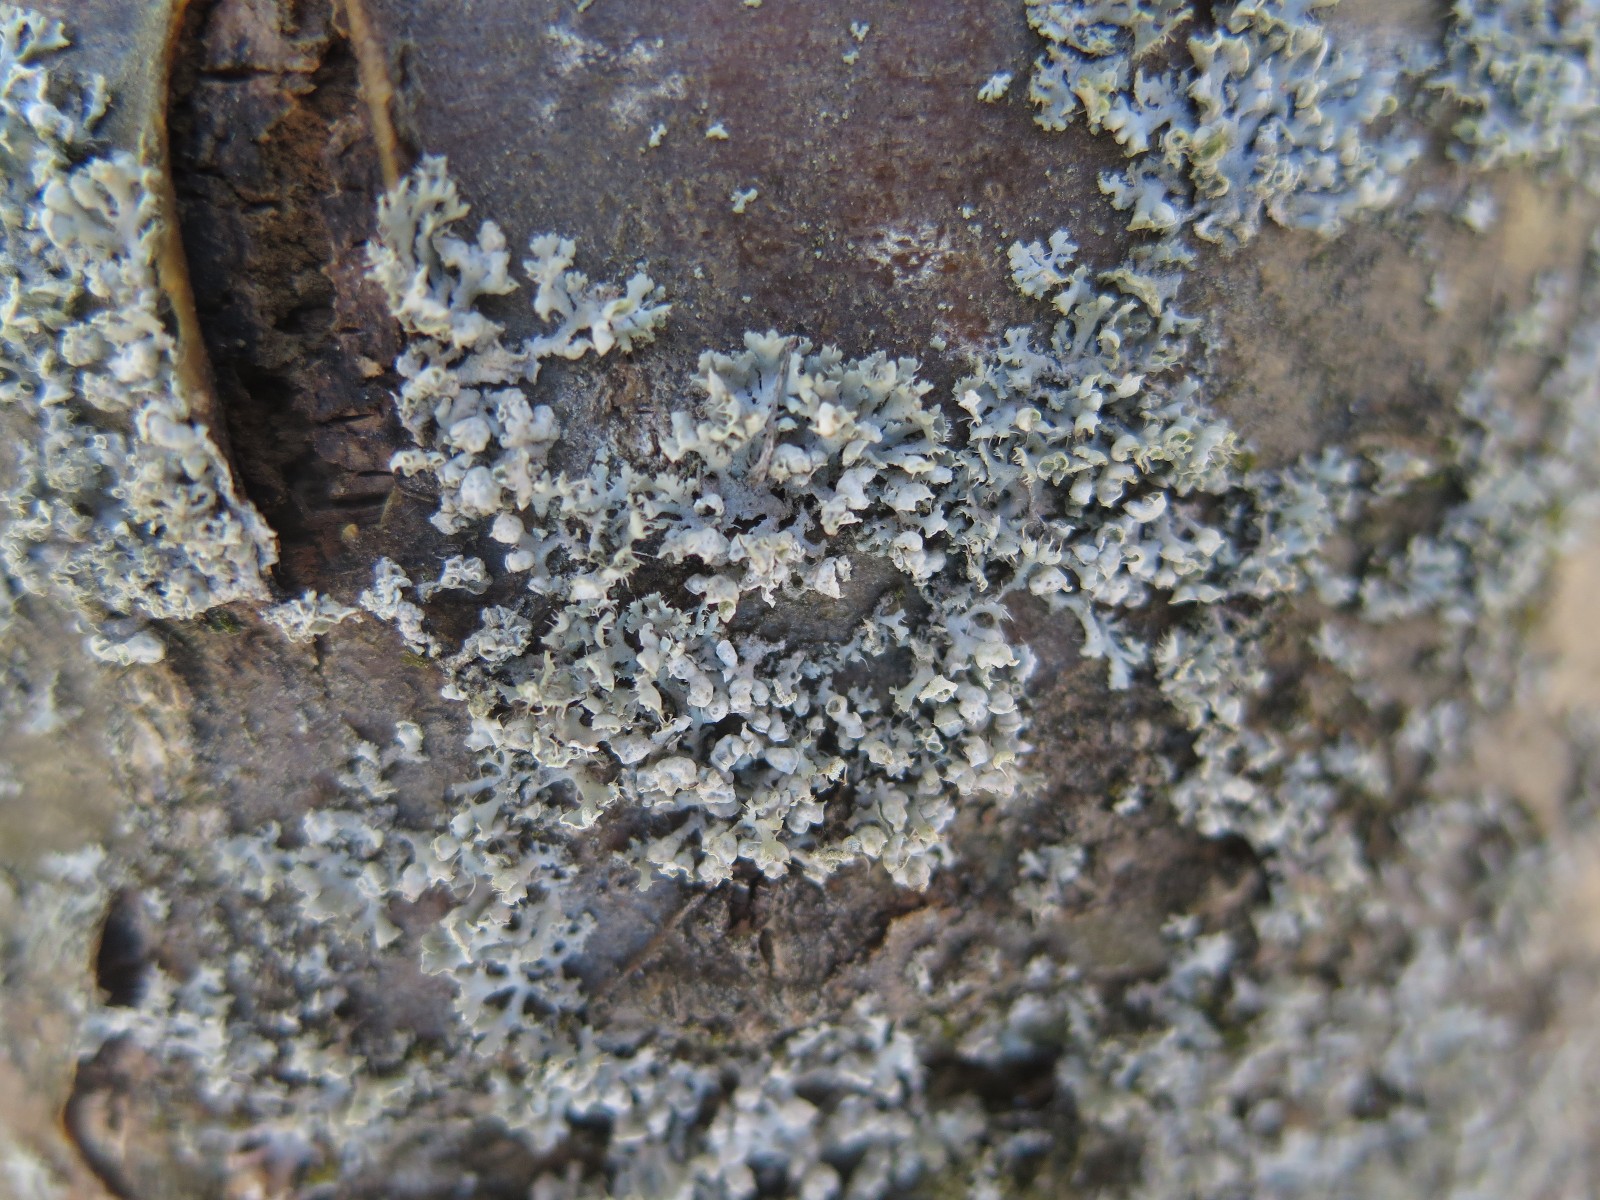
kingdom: Fungi
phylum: Ascomycota
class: Lecanoromycetes
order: Caliciales
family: Physciaceae
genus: Physcia
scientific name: Physcia adscendens
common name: hætte-rosetlav
